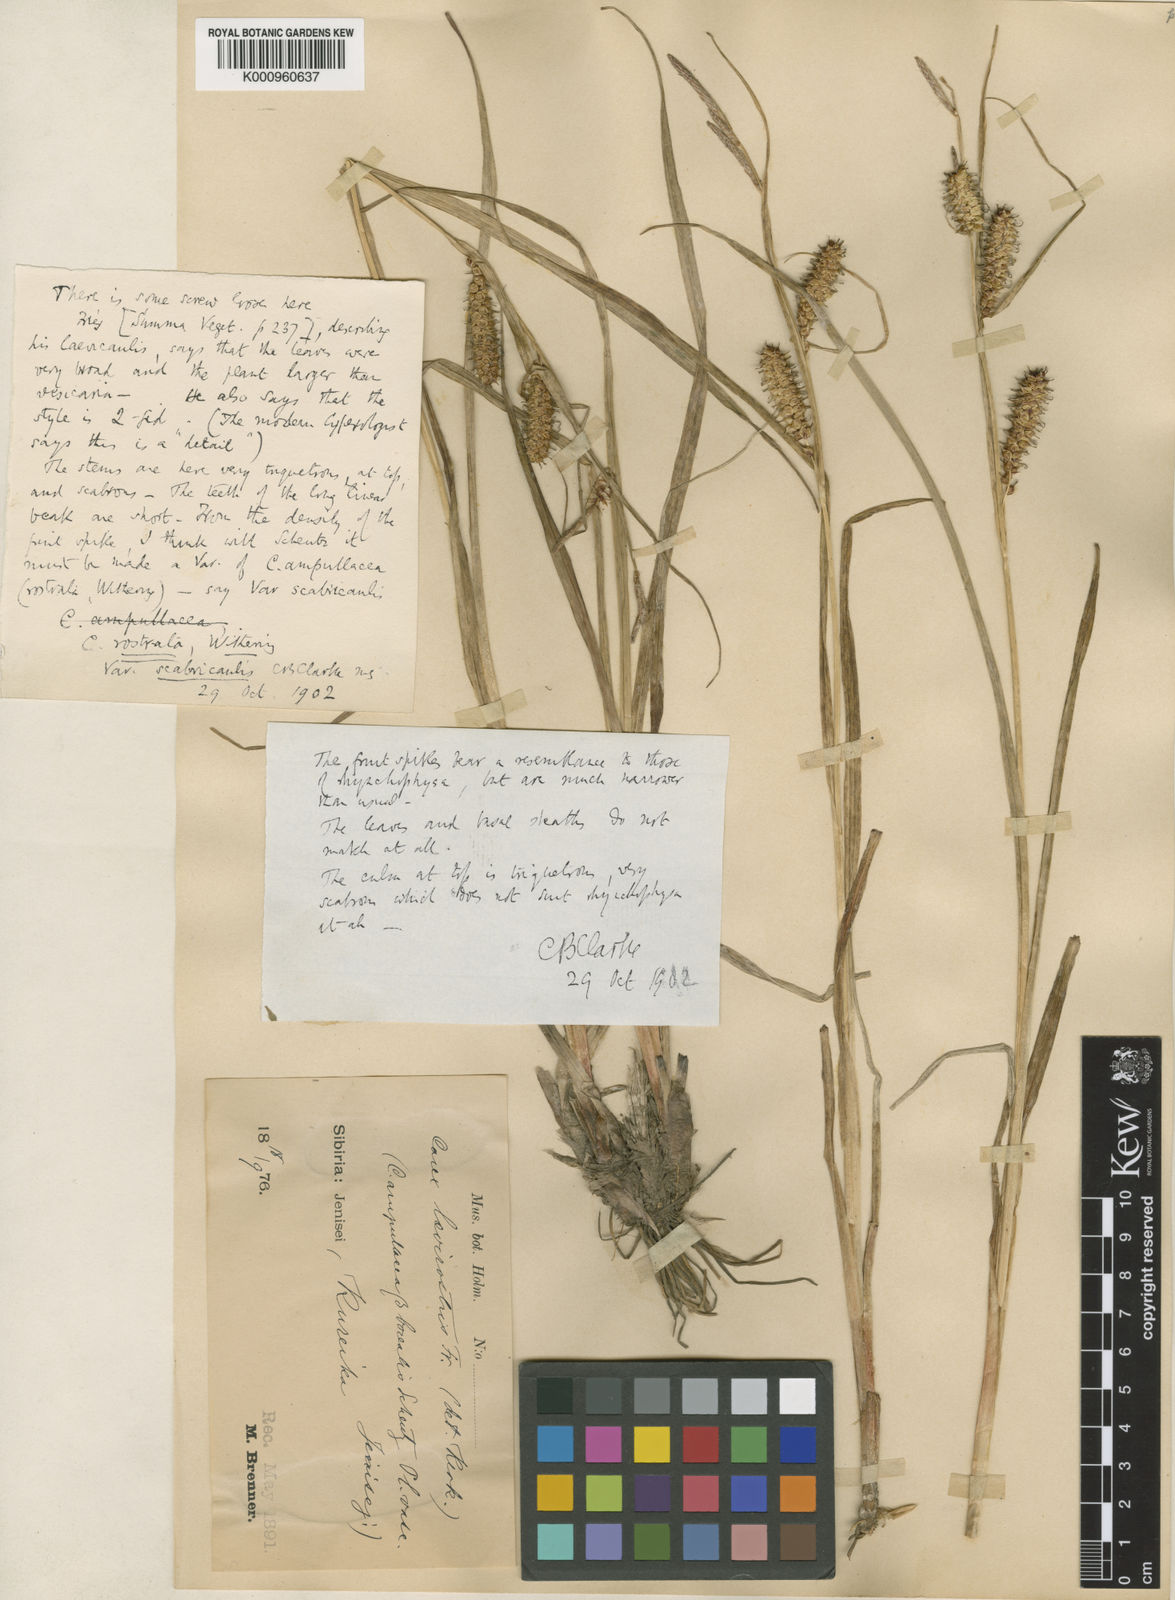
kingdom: Plantae
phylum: Tracheophyta
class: Liliopsida
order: Poales
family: Cyperaceae
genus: Carex
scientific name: Carex rostrata
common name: Bottle sedge
